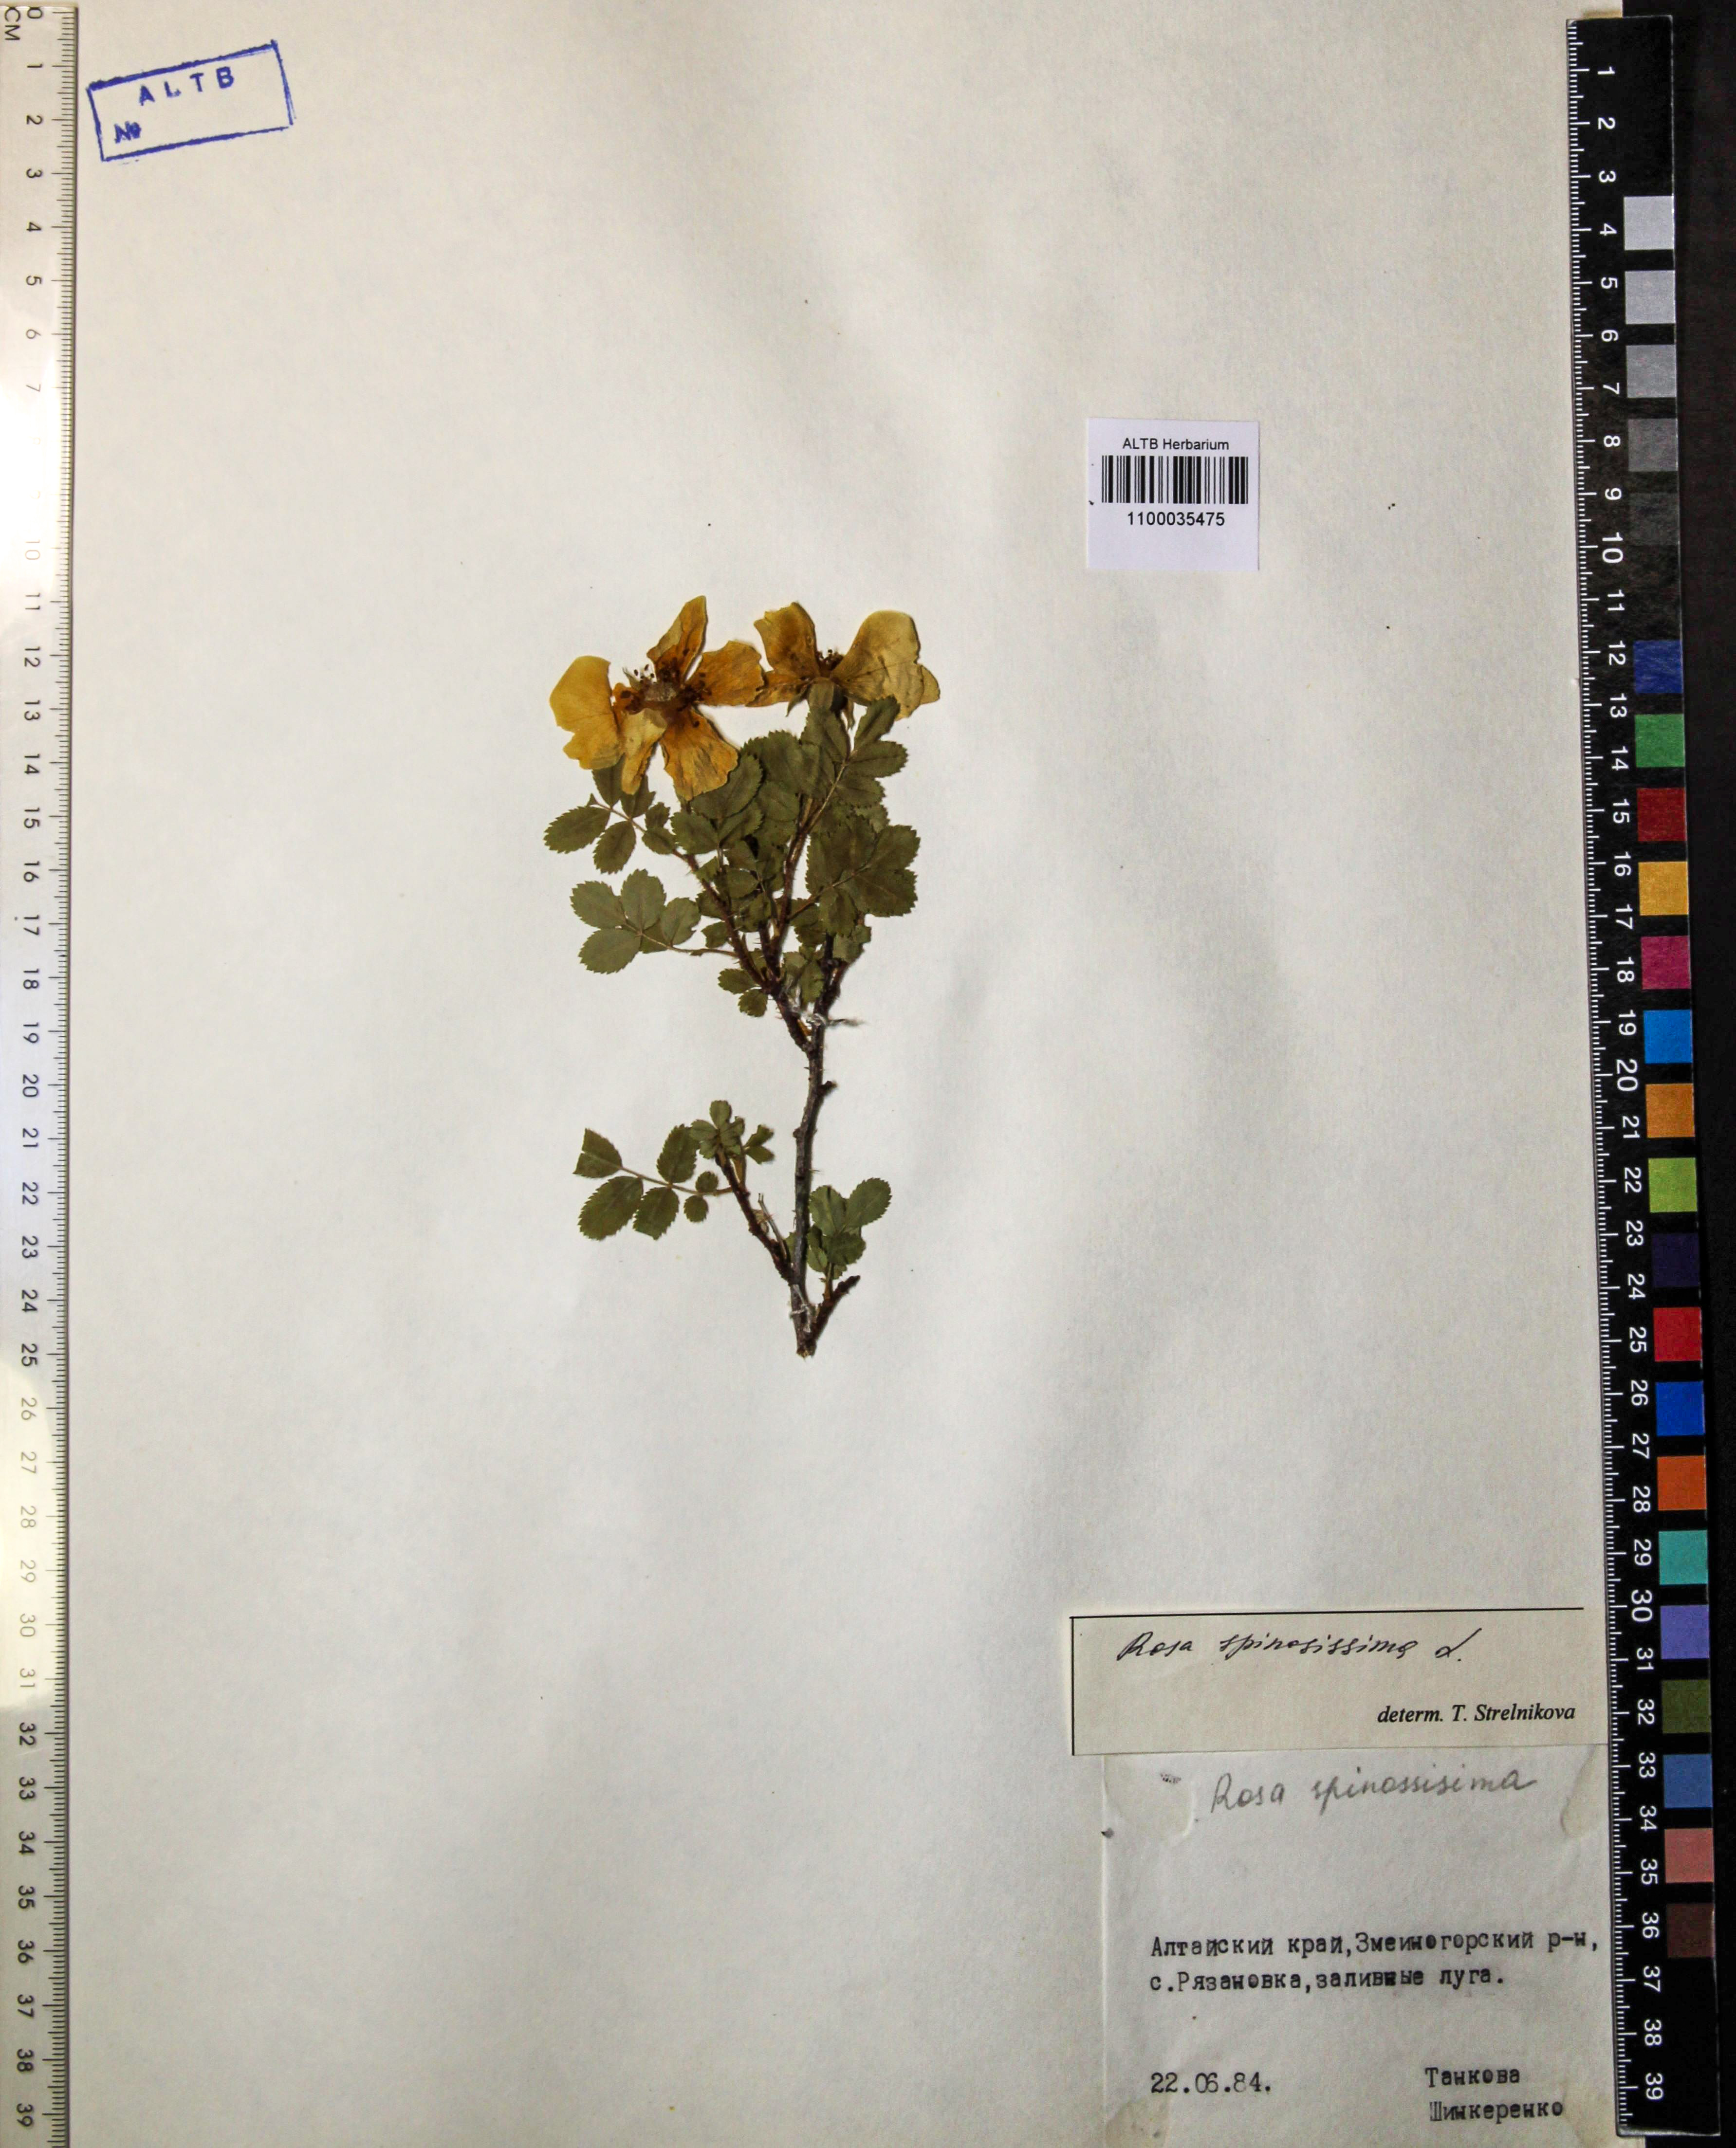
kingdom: Plantae
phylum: Tracheophyta
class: Magnoliopsida
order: Rosales
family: Rosaceae
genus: Rosa
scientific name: Rosa spinosissima
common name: Burnet rose
